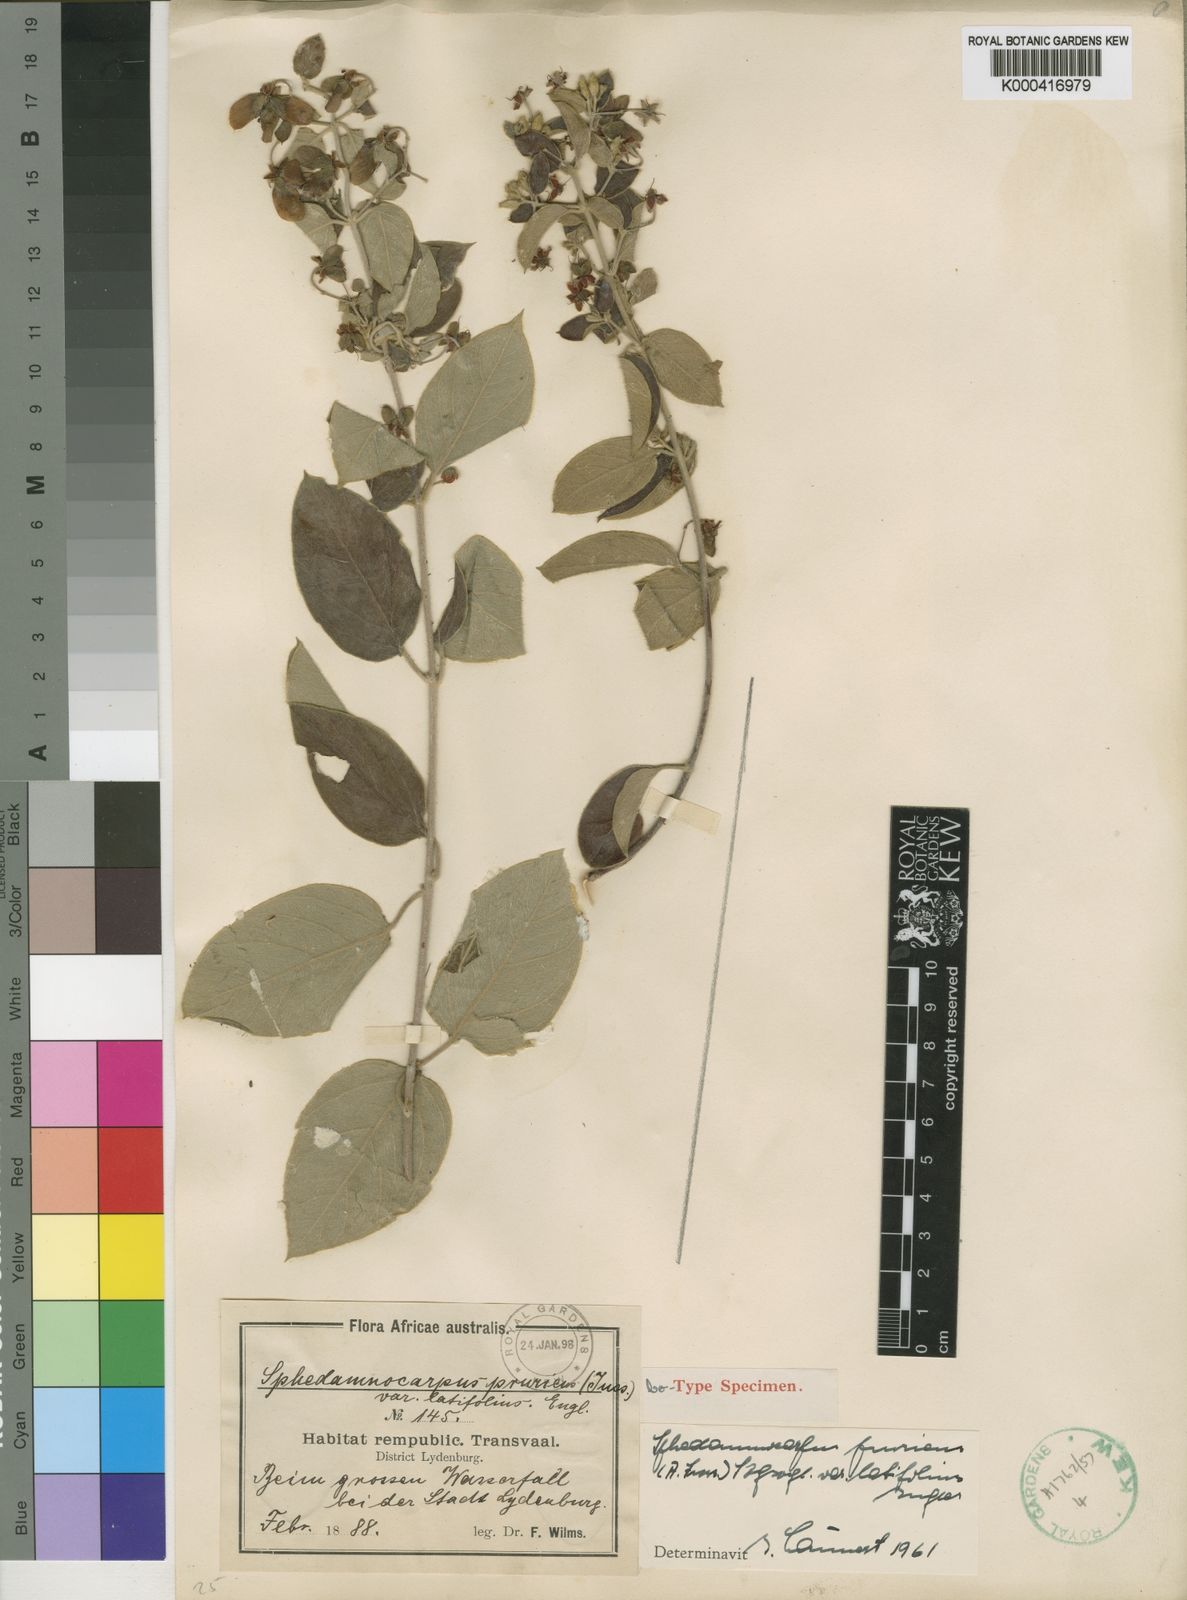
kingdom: Plantae
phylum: Tracheophyta
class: Magnoliopsida
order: Malpighiales
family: Malpighiaceae
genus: Sphedamnocarpus
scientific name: Sphedamnocarpus pruriens
